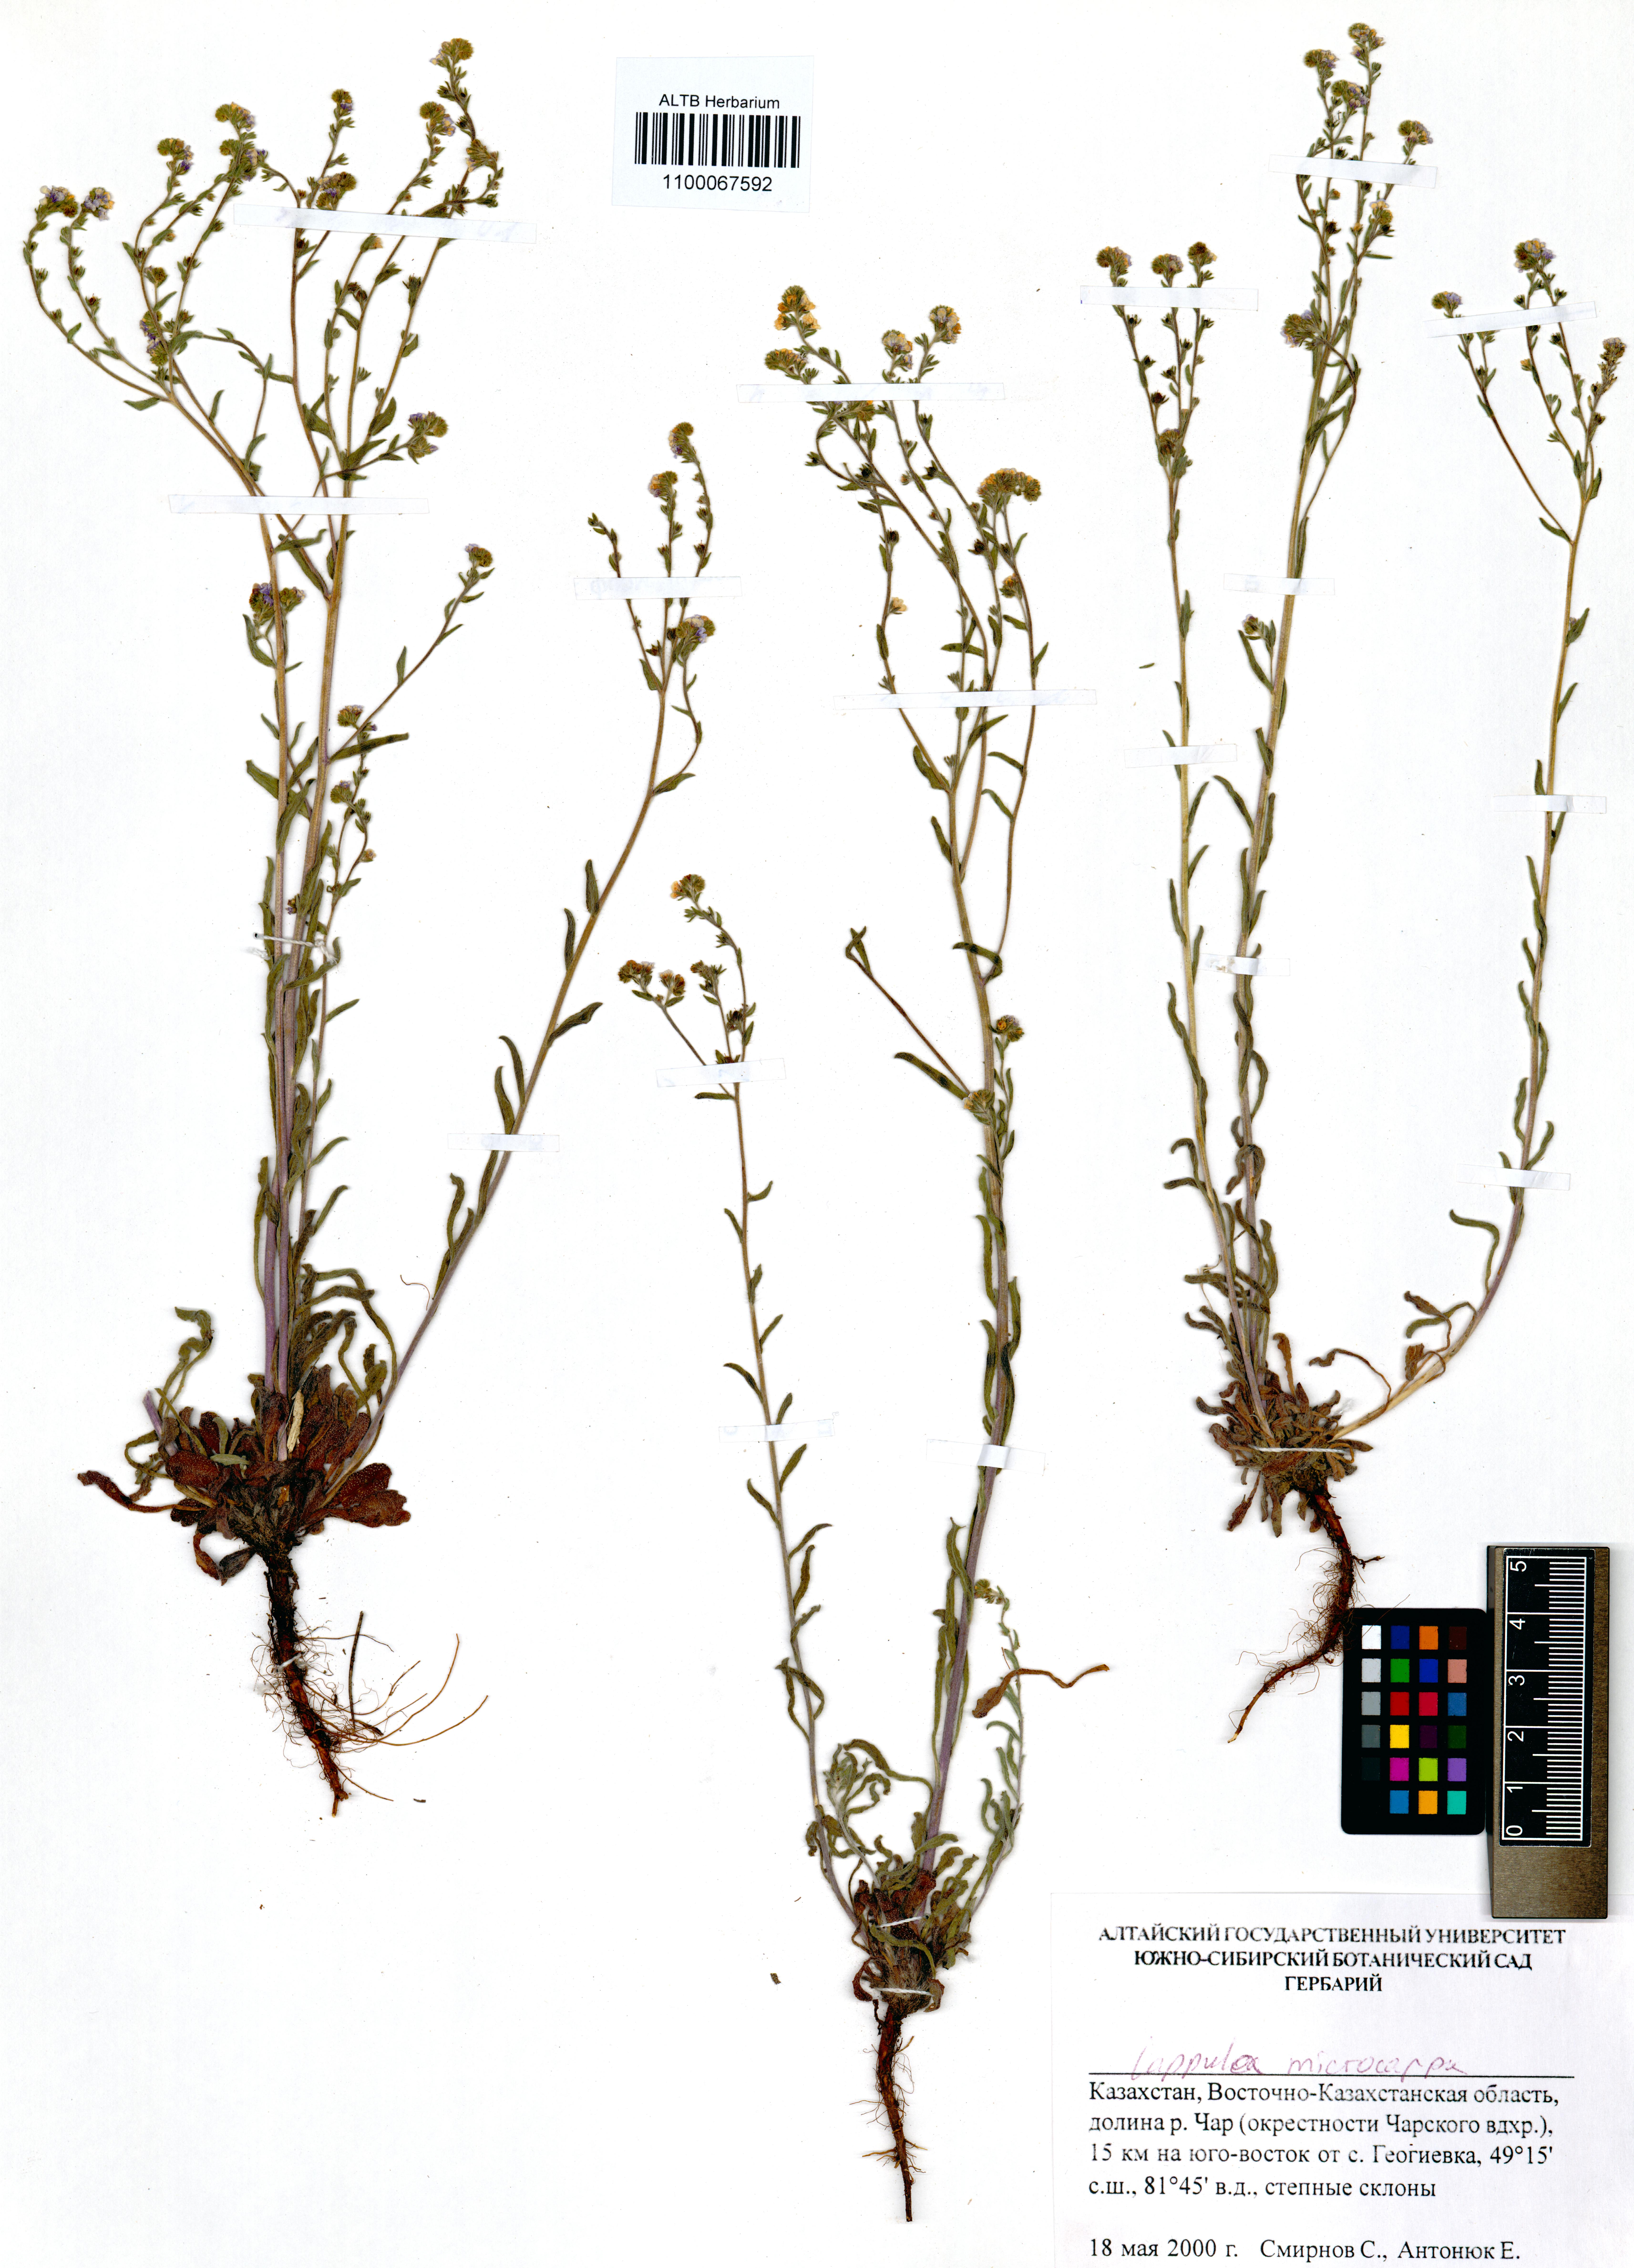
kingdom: Plantae
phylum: Tracheophyta
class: Magnoliopsida
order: Boraginales
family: Boraginaceae
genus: Lappula
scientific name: Lappula microcarpa
